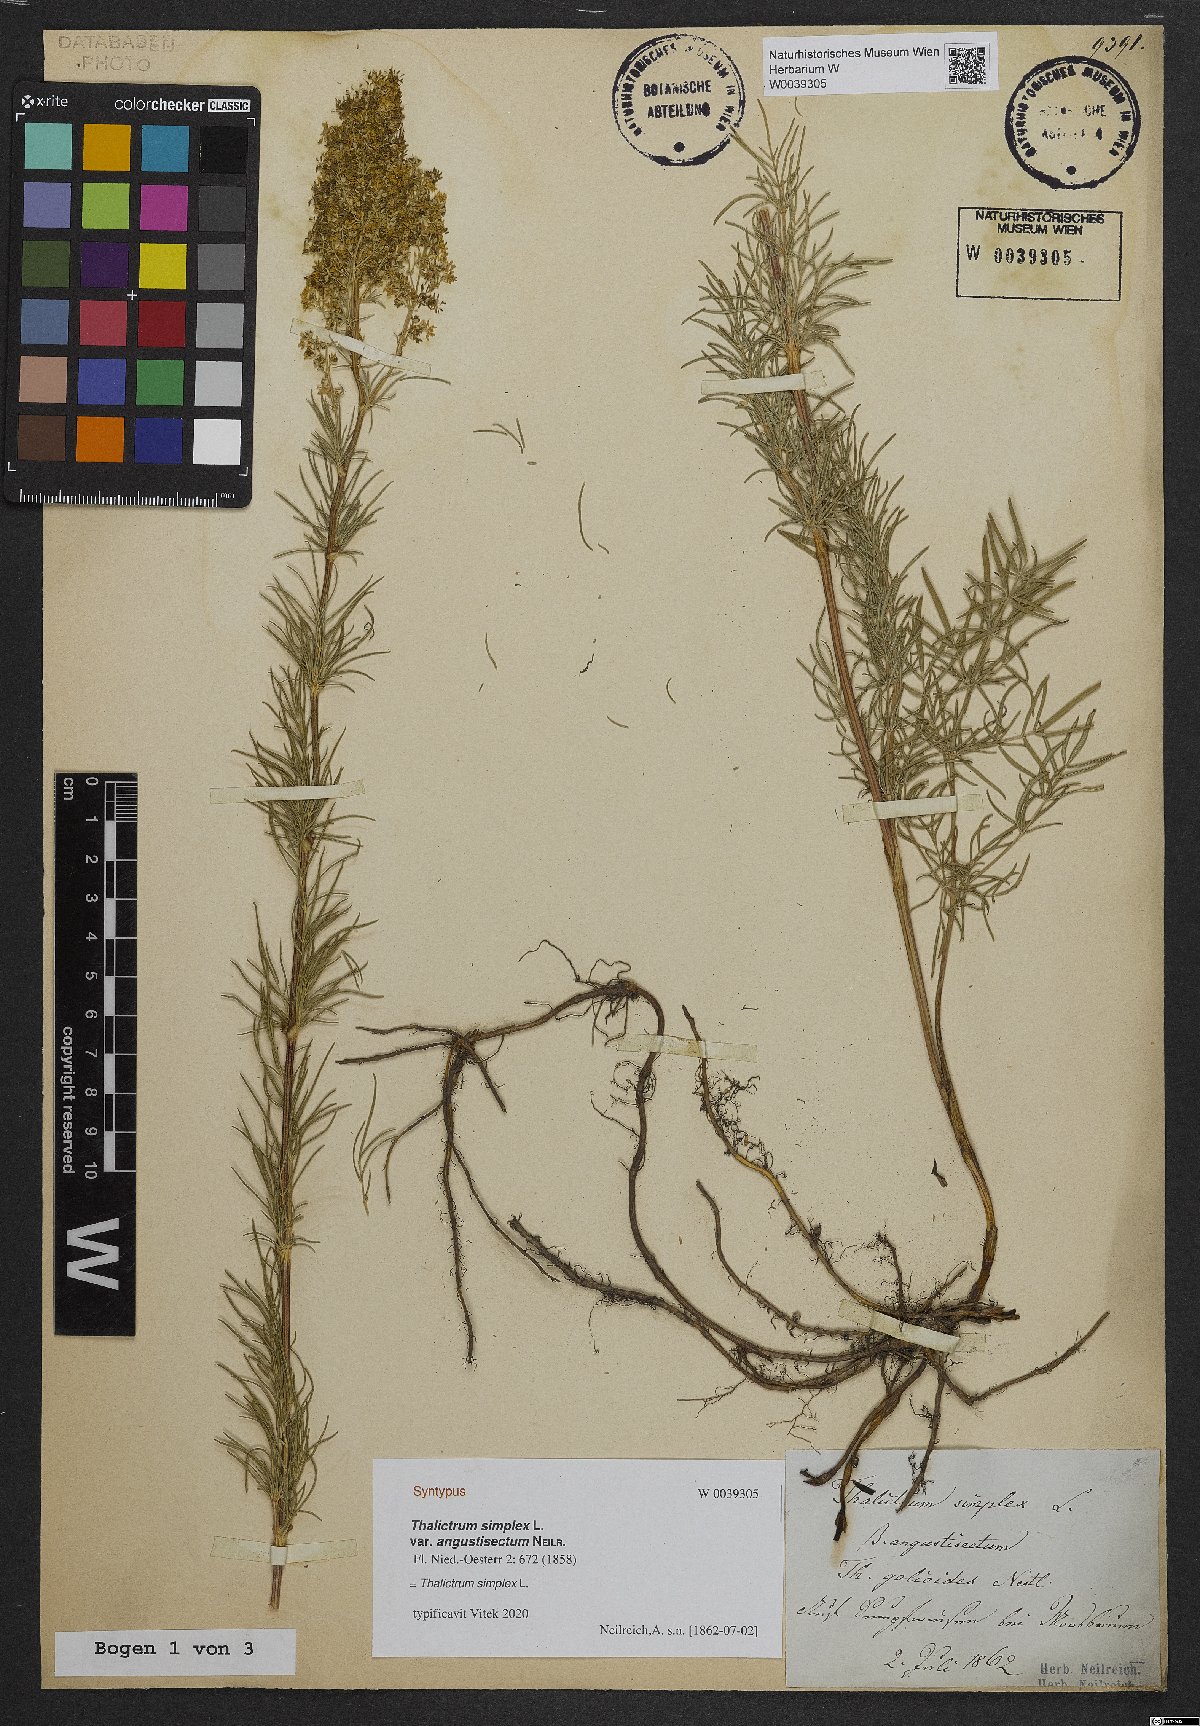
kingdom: Plantae
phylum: Tracheophyta
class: Magnoliopsida
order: Ranunculales
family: Ranunculaceae
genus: Thalictrum
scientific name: Thalictrum simplex
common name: Small meadow-rue
